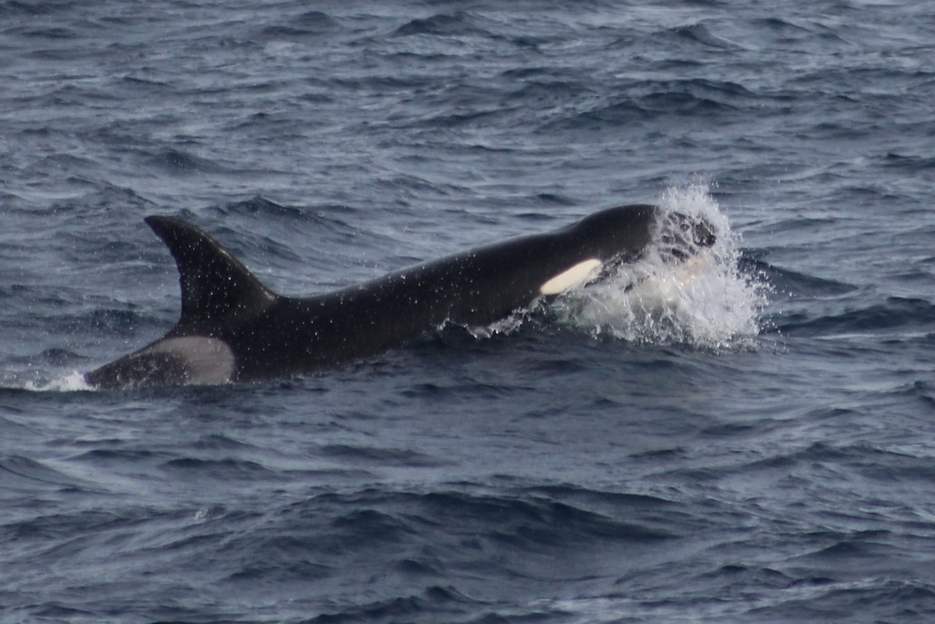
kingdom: Animalia
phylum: Chordata
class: Mammalia
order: Cetacea
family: Delphinidae
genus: Orcinus
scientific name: Orcinus orca
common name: Killer Whale
